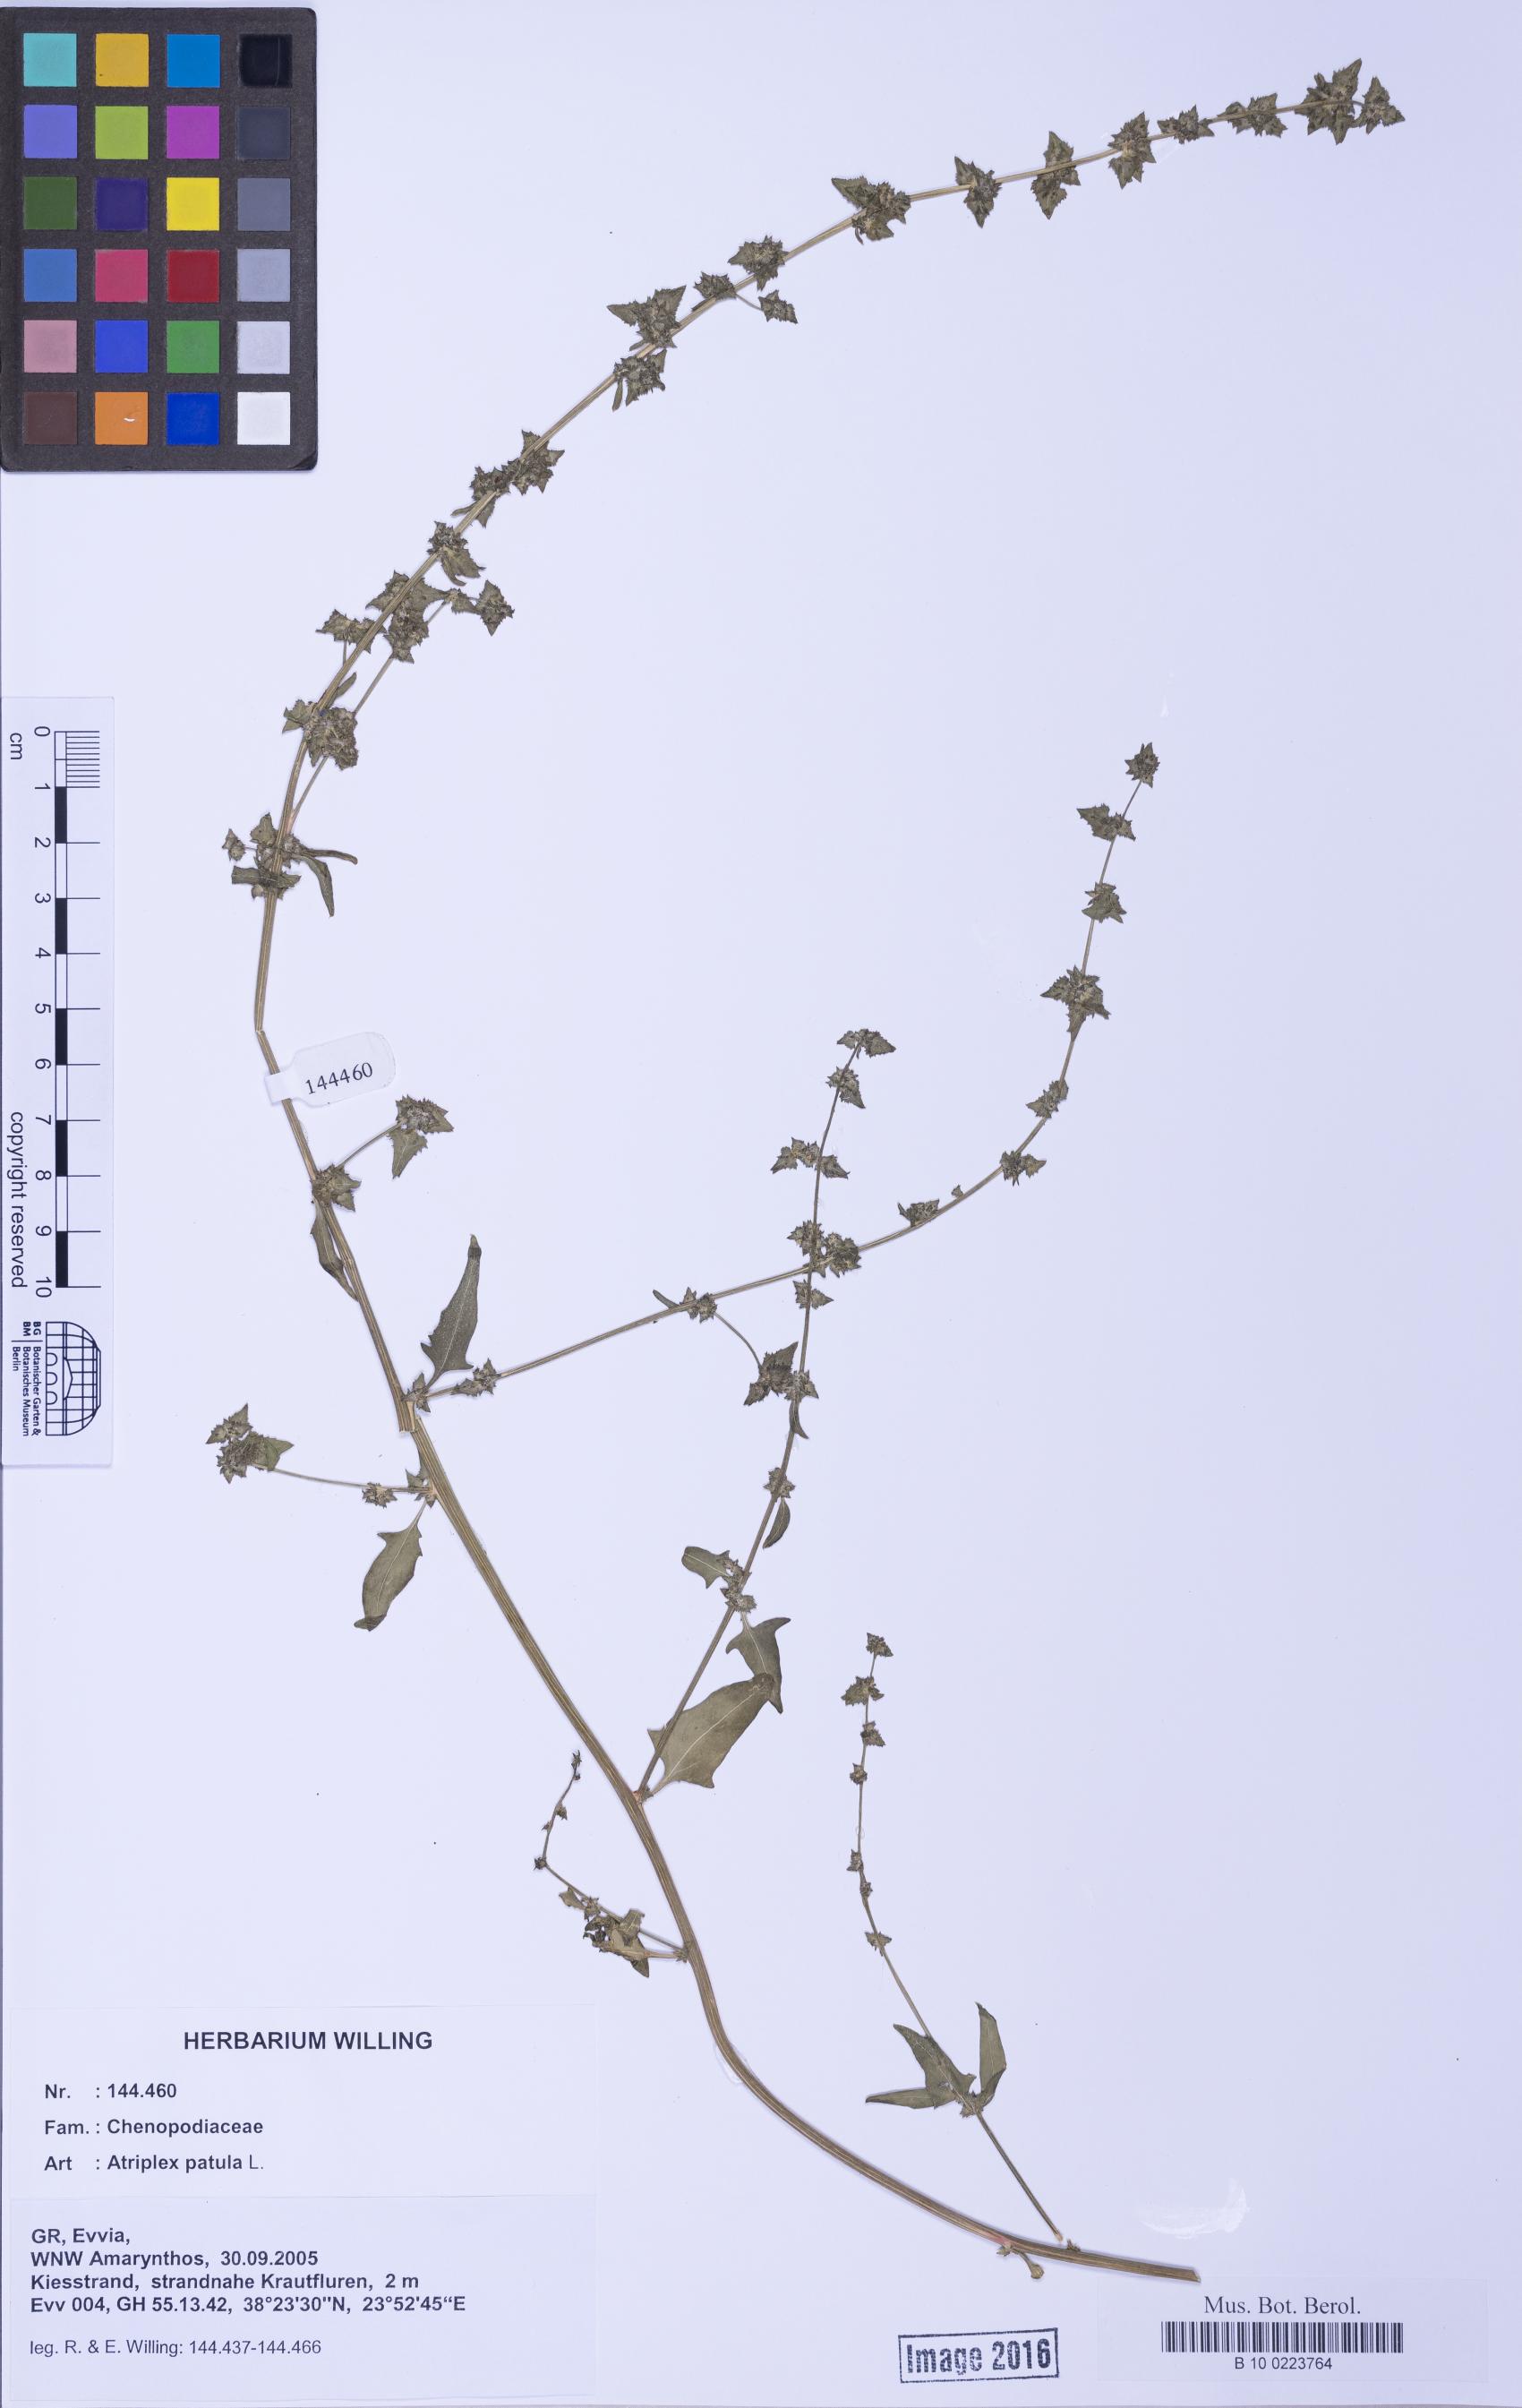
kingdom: Plantae
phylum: Tracheophyta
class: Magnoliopsida
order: Caryophyllales
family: Amaranthaceae
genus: Atriplex
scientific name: Atriplex prostrata
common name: Spear-leaved orache
